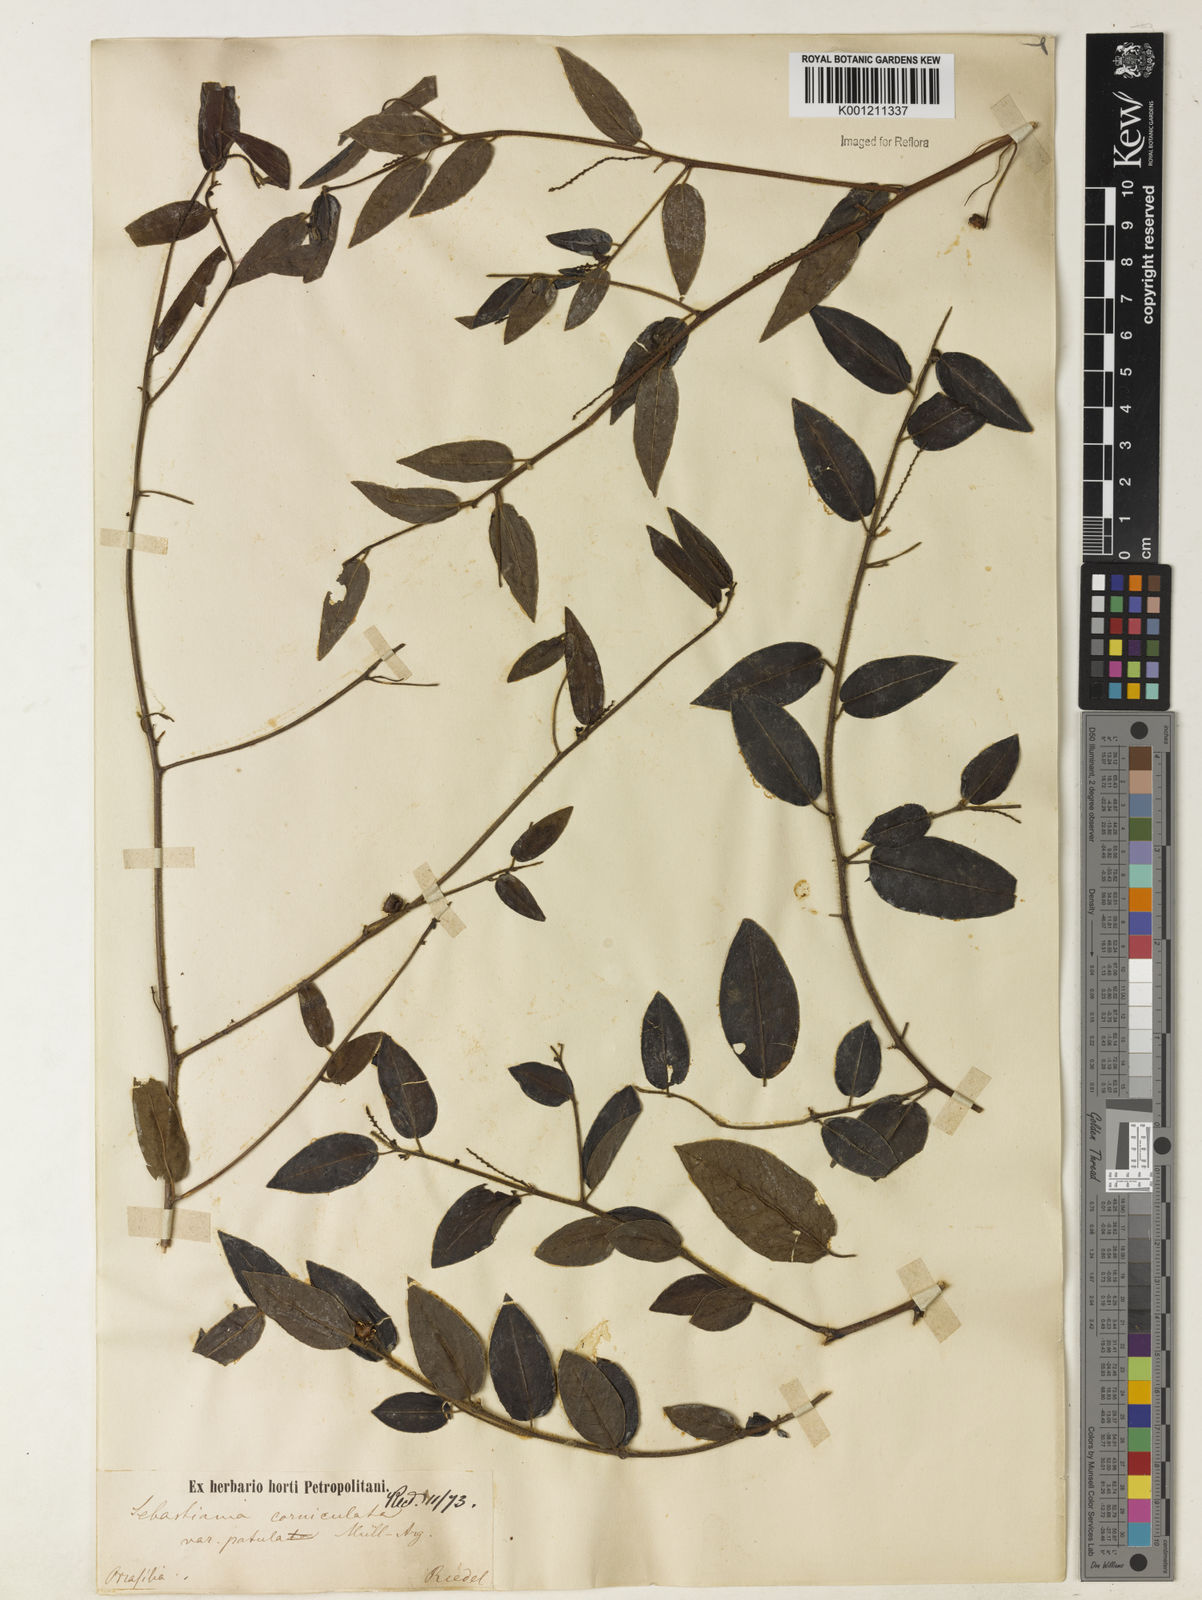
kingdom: Plantae
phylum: Tracheophyta
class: Magnoliopsida
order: Malpighiales
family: Euphorbiaceae
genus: Microstachys
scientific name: Microstachys corniculata
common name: Hato tejas
